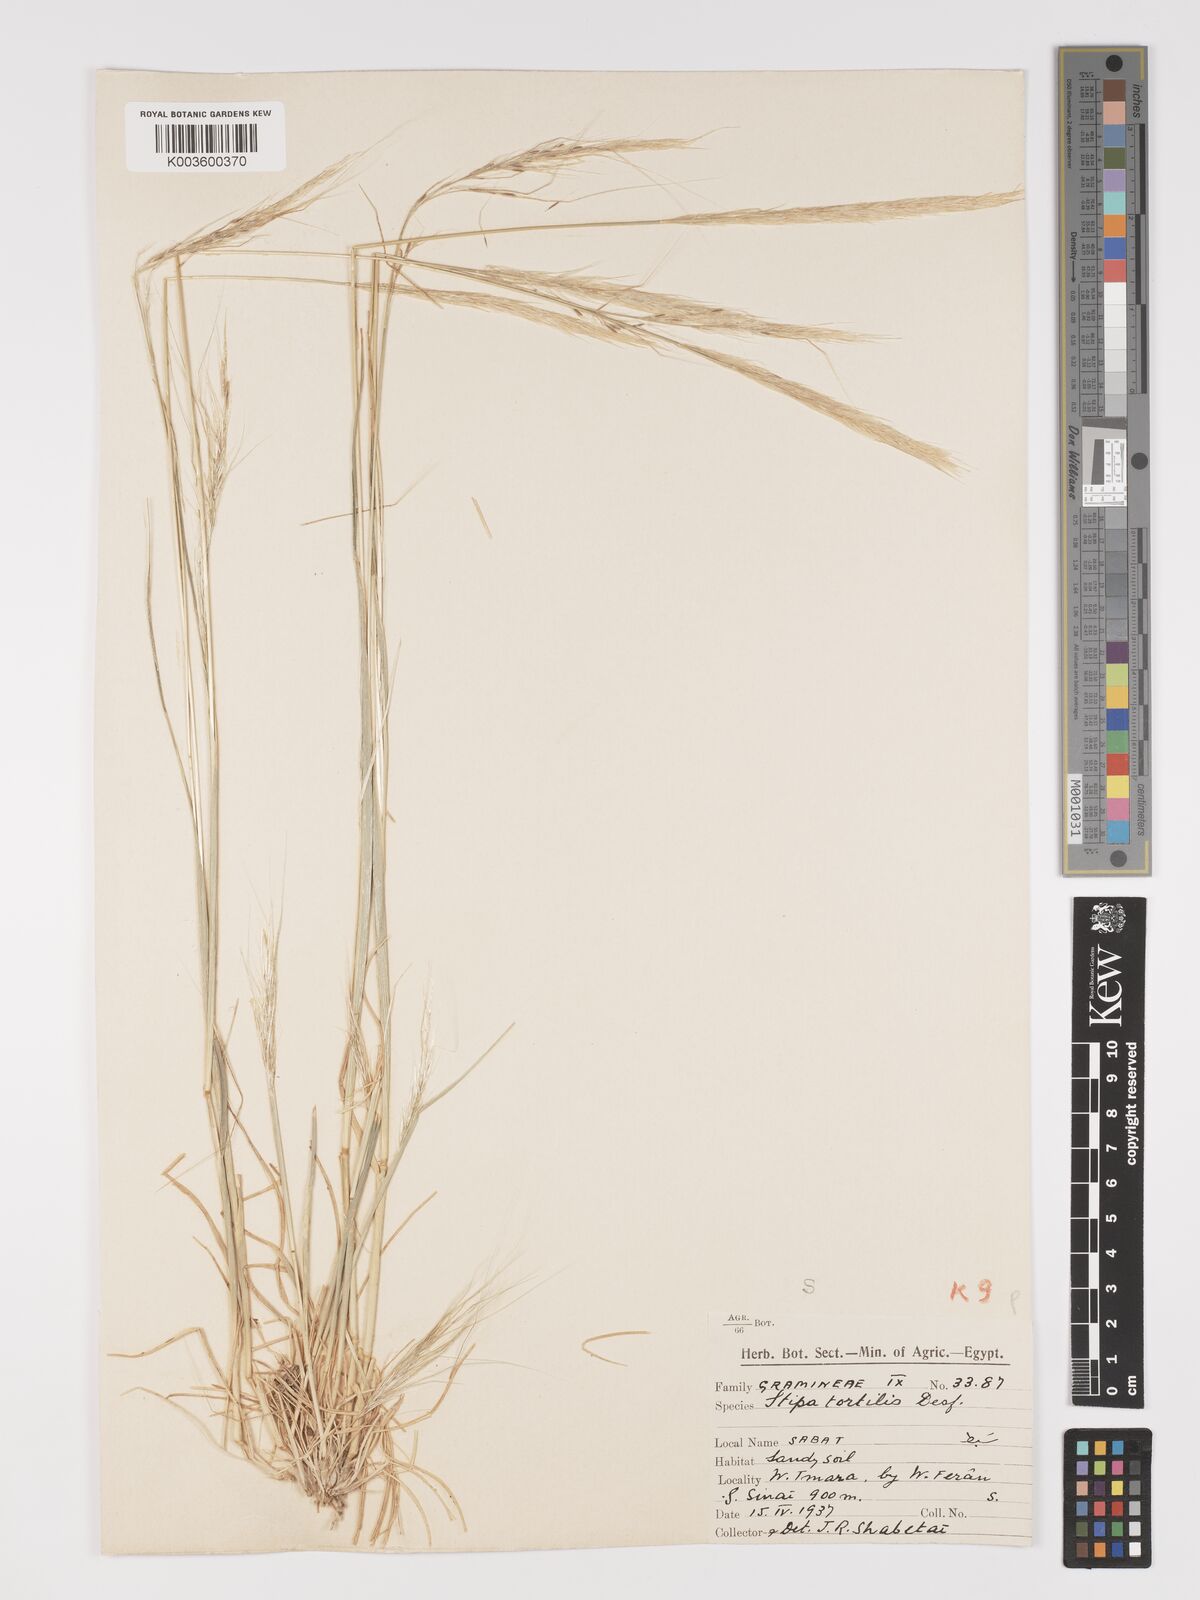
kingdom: Plantae
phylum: Tracheophyta
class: Liliopsida
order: Poales
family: Poaceae
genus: Stipellula
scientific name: Stipellula capensis
